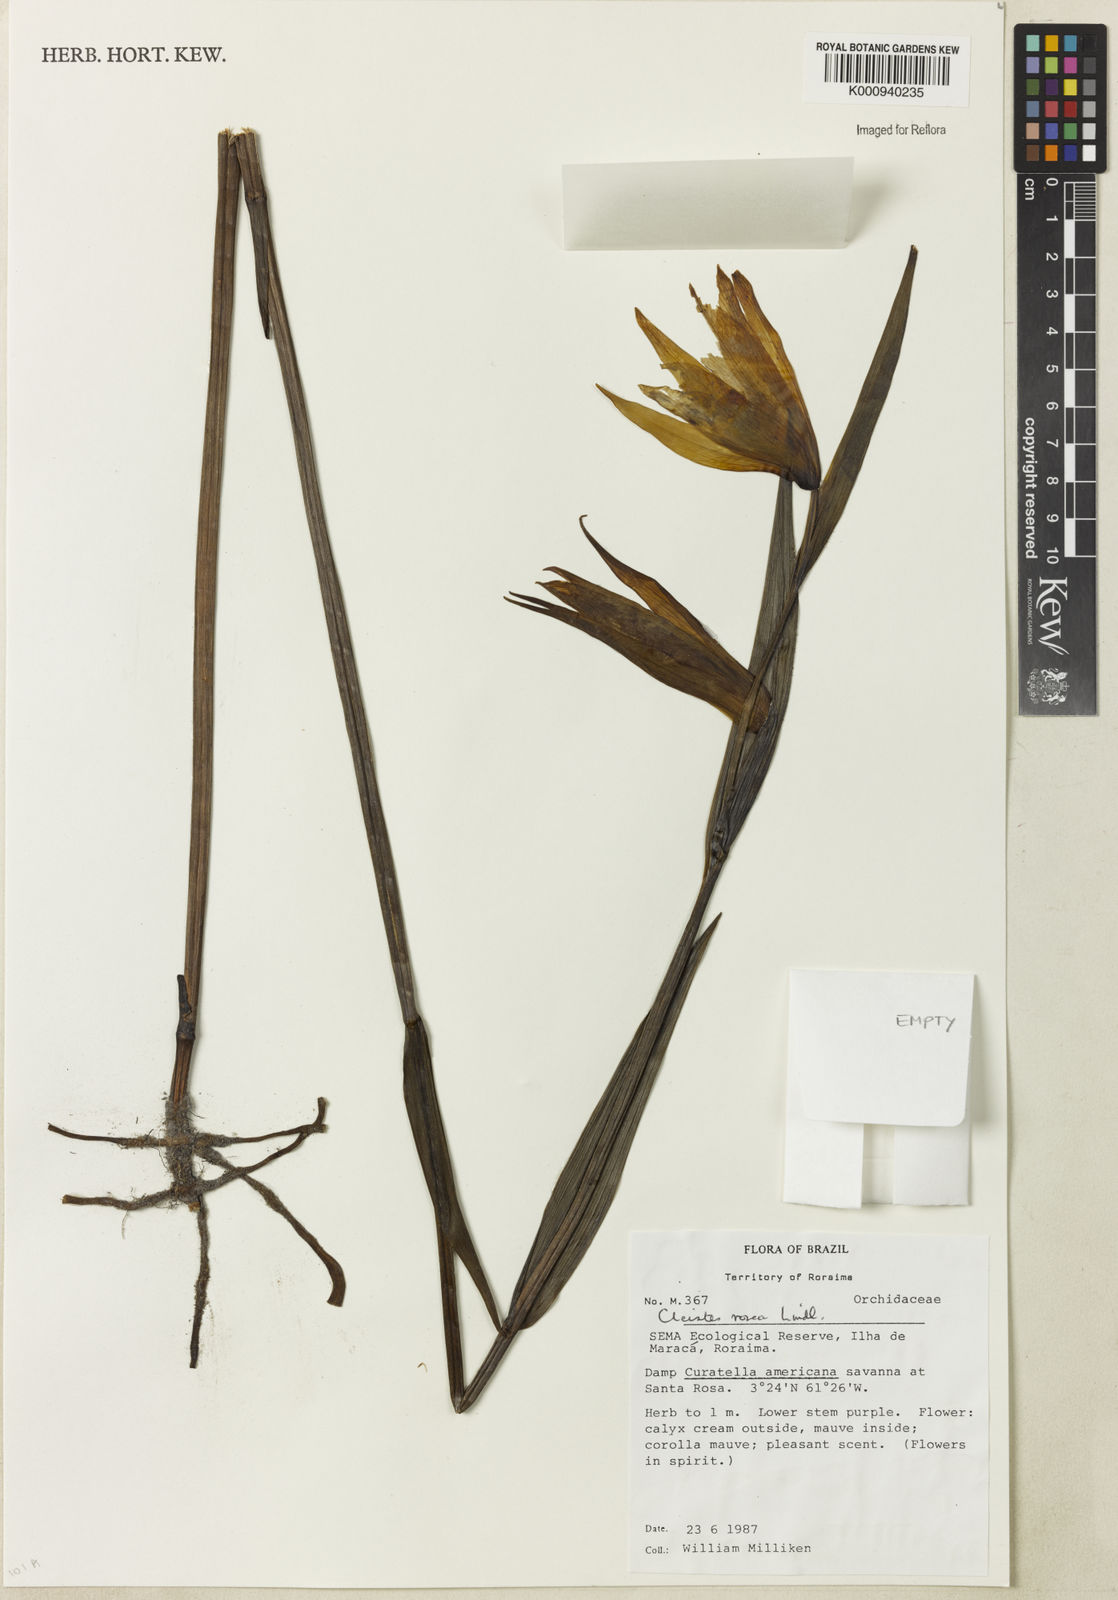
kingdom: Plantae
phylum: Tracheophyta
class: Liliopsida
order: Asparagales
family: Orchidaceae
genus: Cleistes
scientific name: Cleistes rosea
